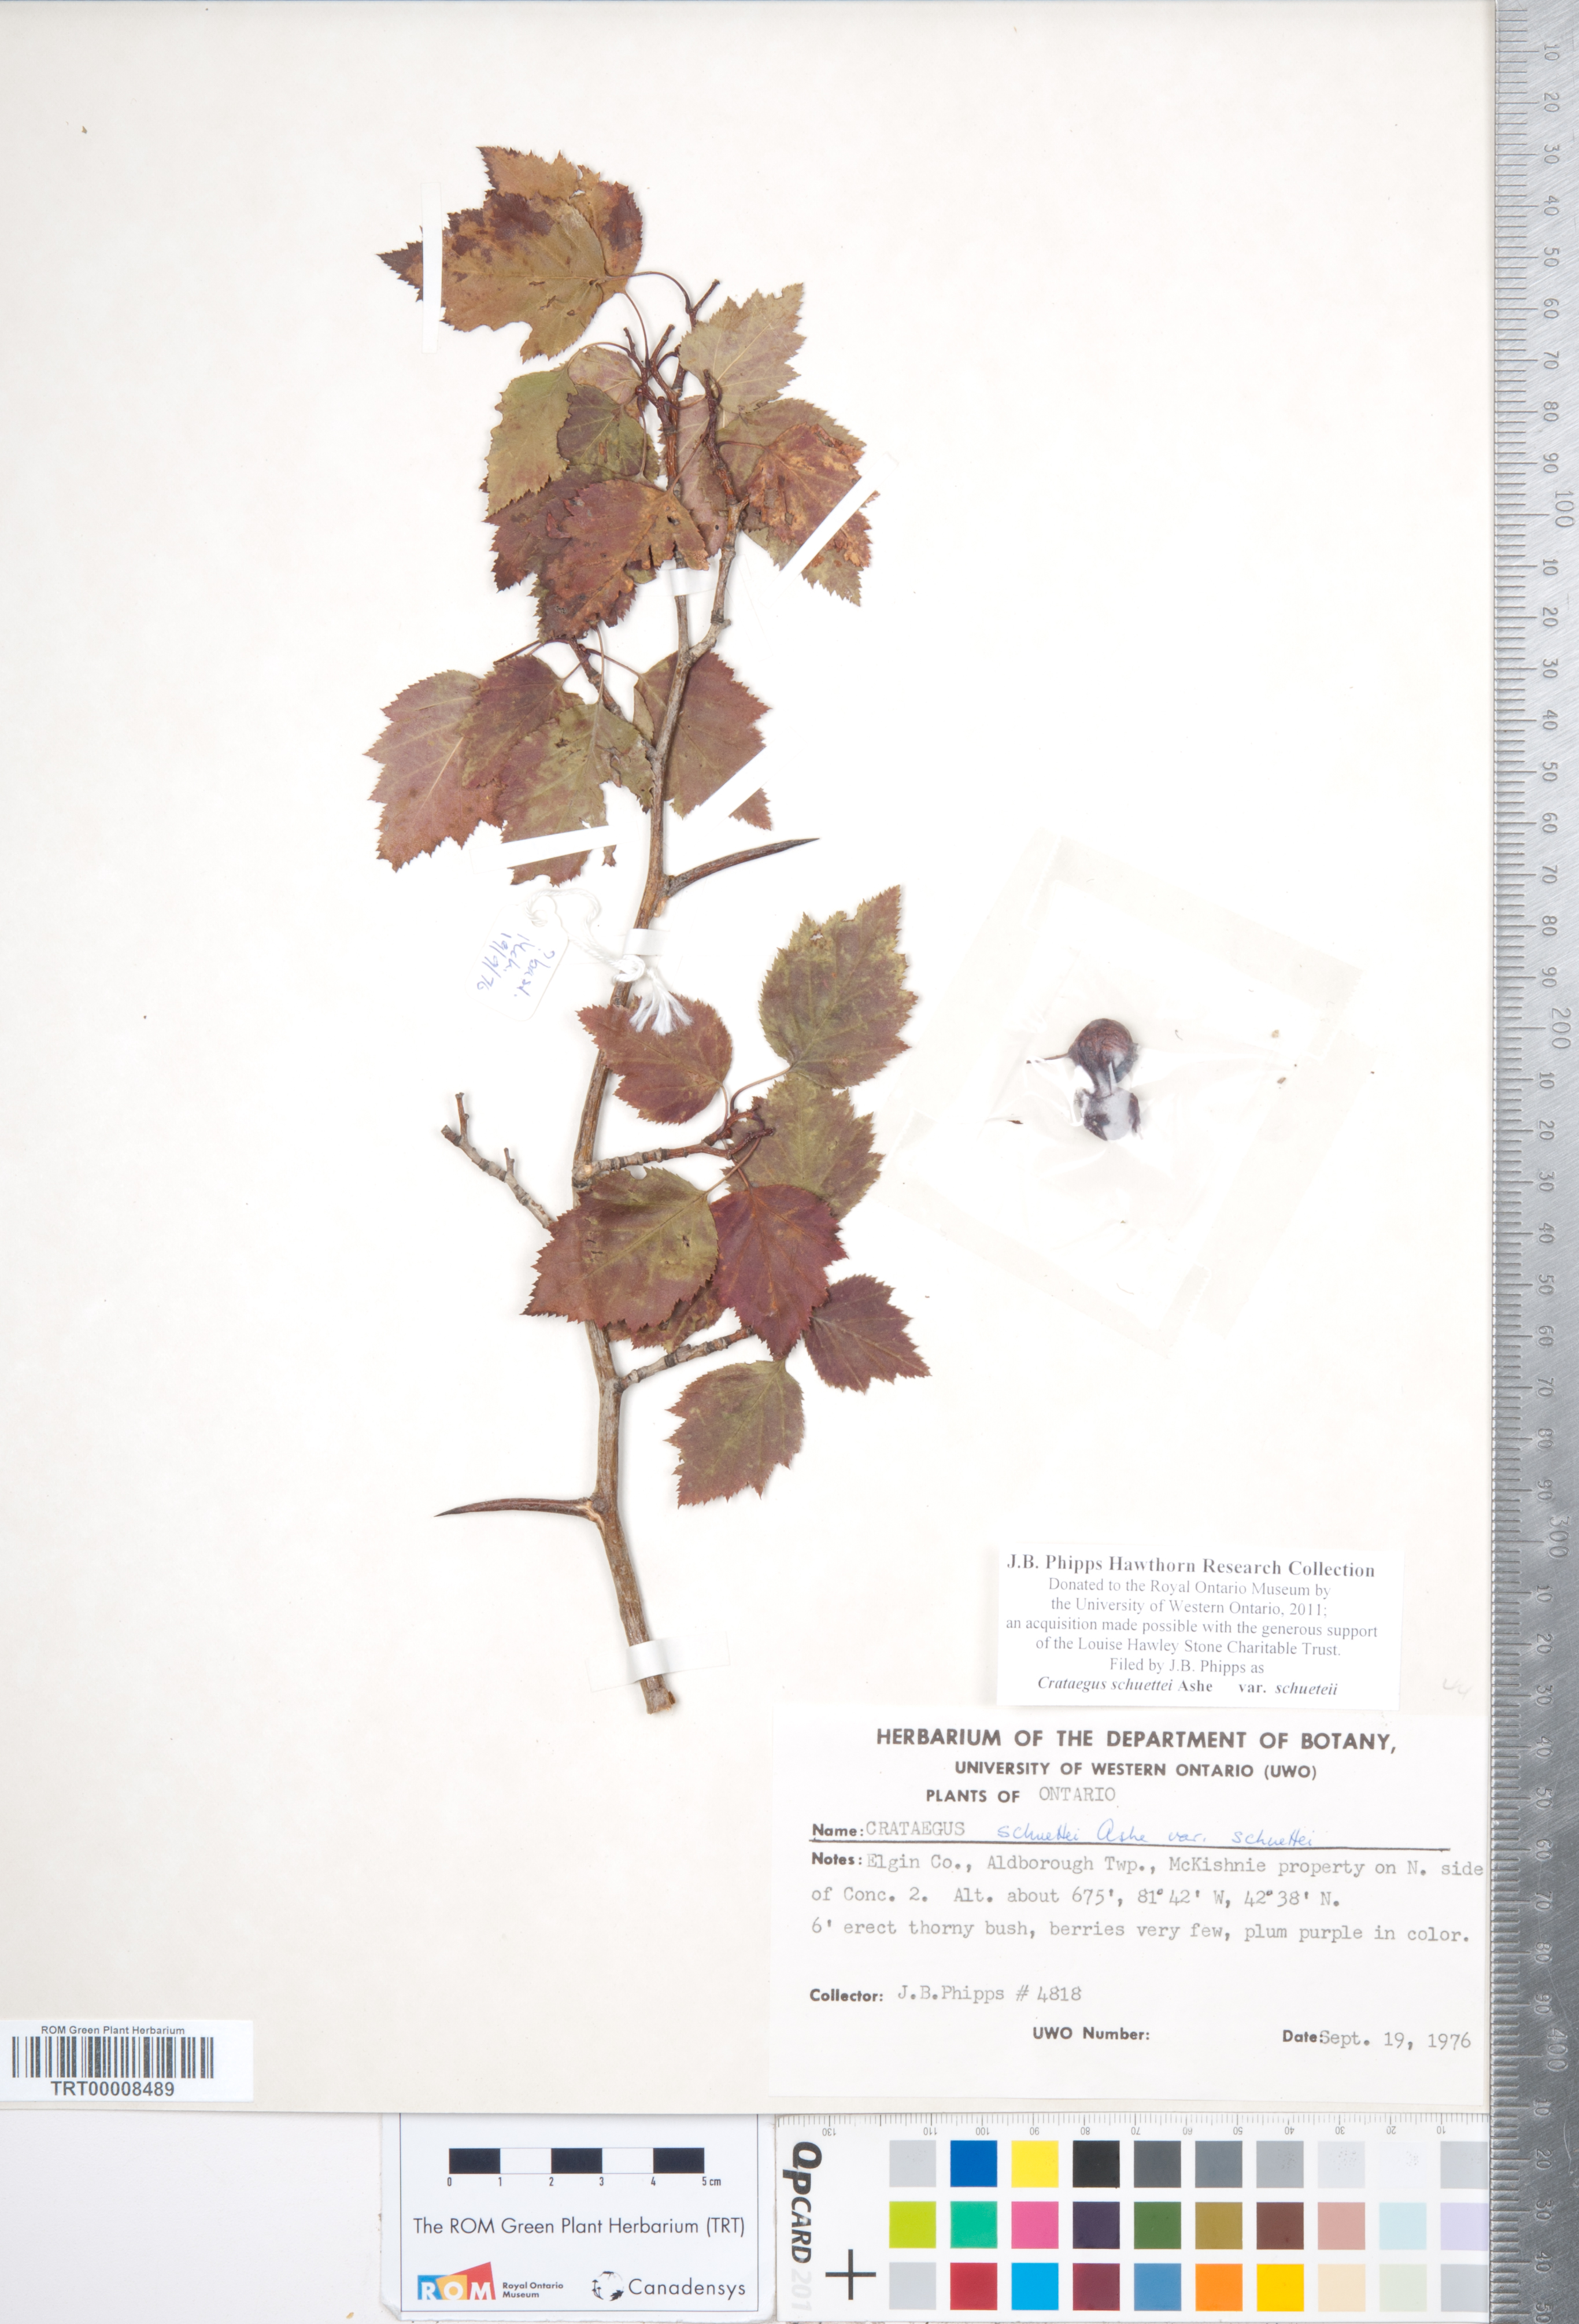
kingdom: Plantae
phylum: Tracheophyta
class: Magnoliopsida
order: Rosales
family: Rosaceae
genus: Crataegus
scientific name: Crataegus schuettei
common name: Schuette's hawthorn
